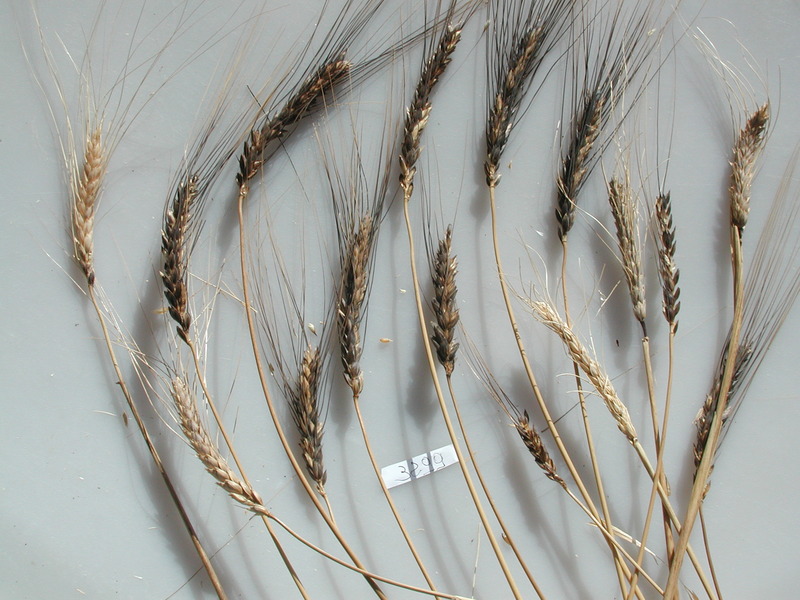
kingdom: Plantae
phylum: Tracheophyta
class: Liliopsida
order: Poales
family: Poaceae
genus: Triticum
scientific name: Triticum turgidum
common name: Wheat
